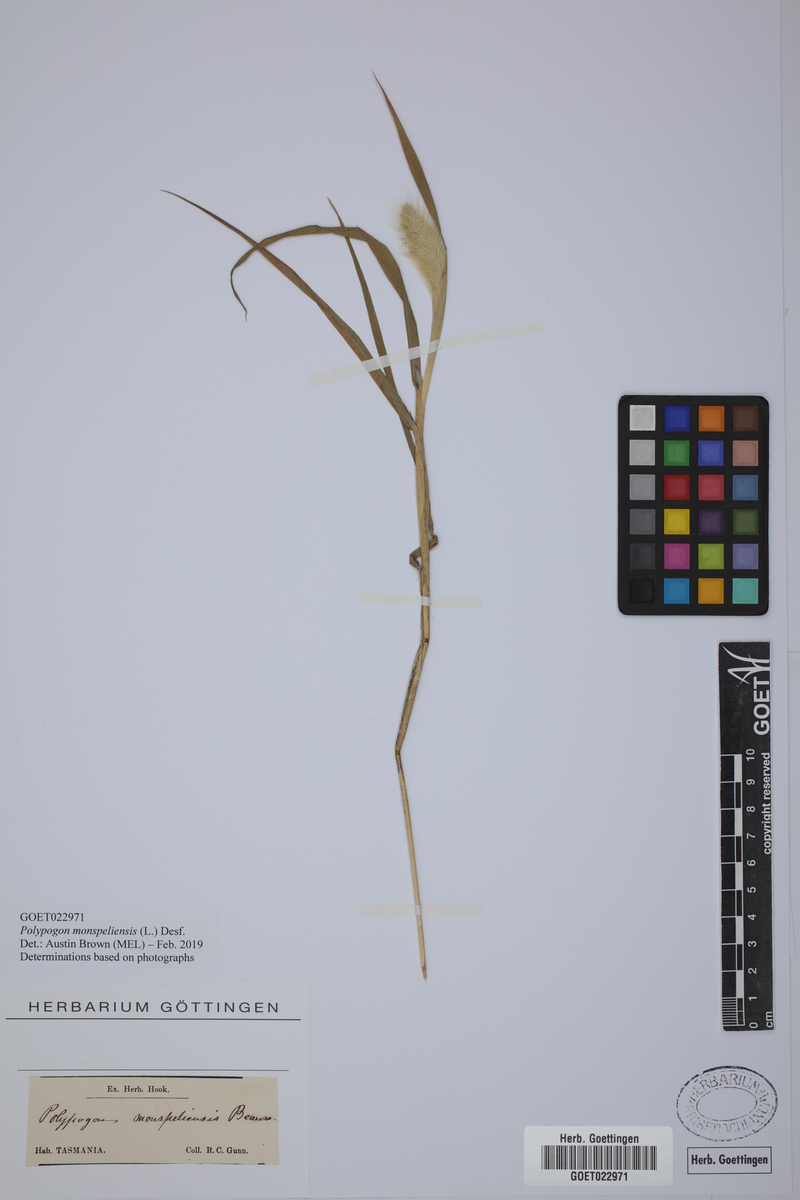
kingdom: Plantae
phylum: Tracheophyta
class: Liliopsida
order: Poales
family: Poaceae
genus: Polypogon
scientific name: Polypogon monspeliensis
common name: Annual rabbitsfoot grass
